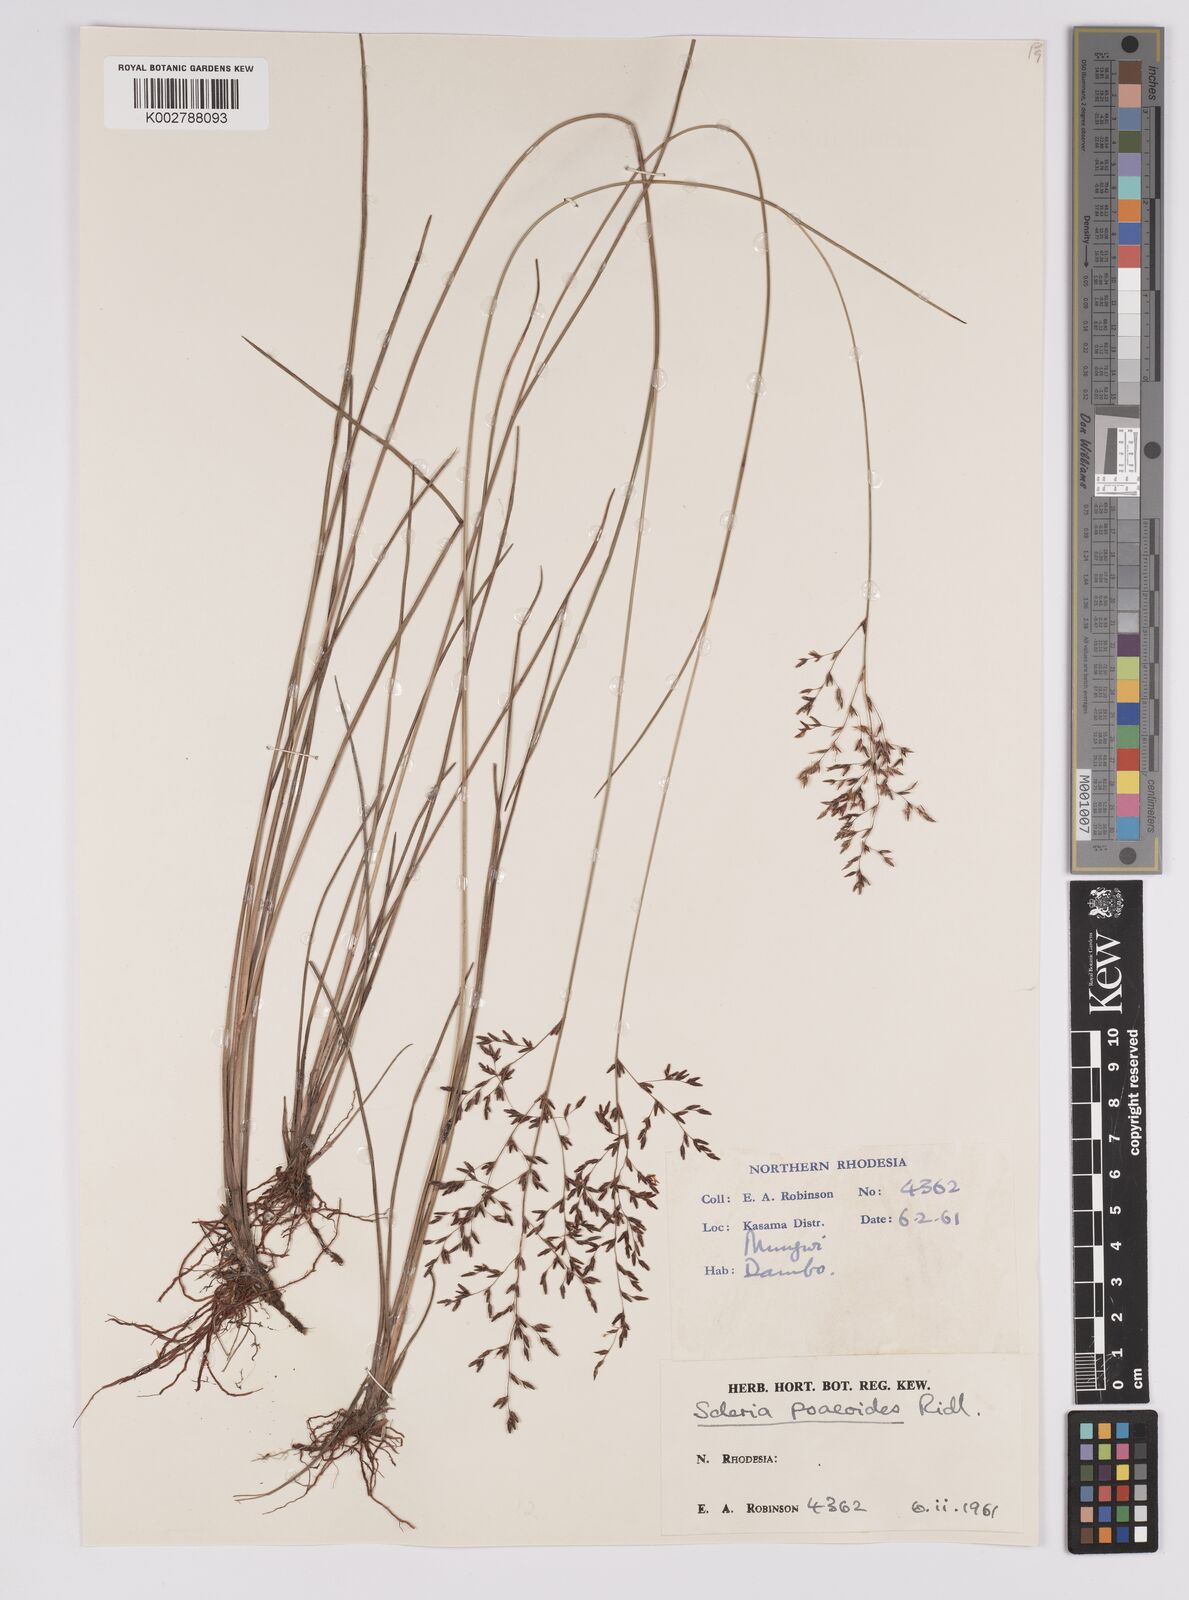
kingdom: Plantae
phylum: Tracheophyta
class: Liliopsida
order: Poales
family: Cyperaceae
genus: Scleria
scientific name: Scleria pooides
